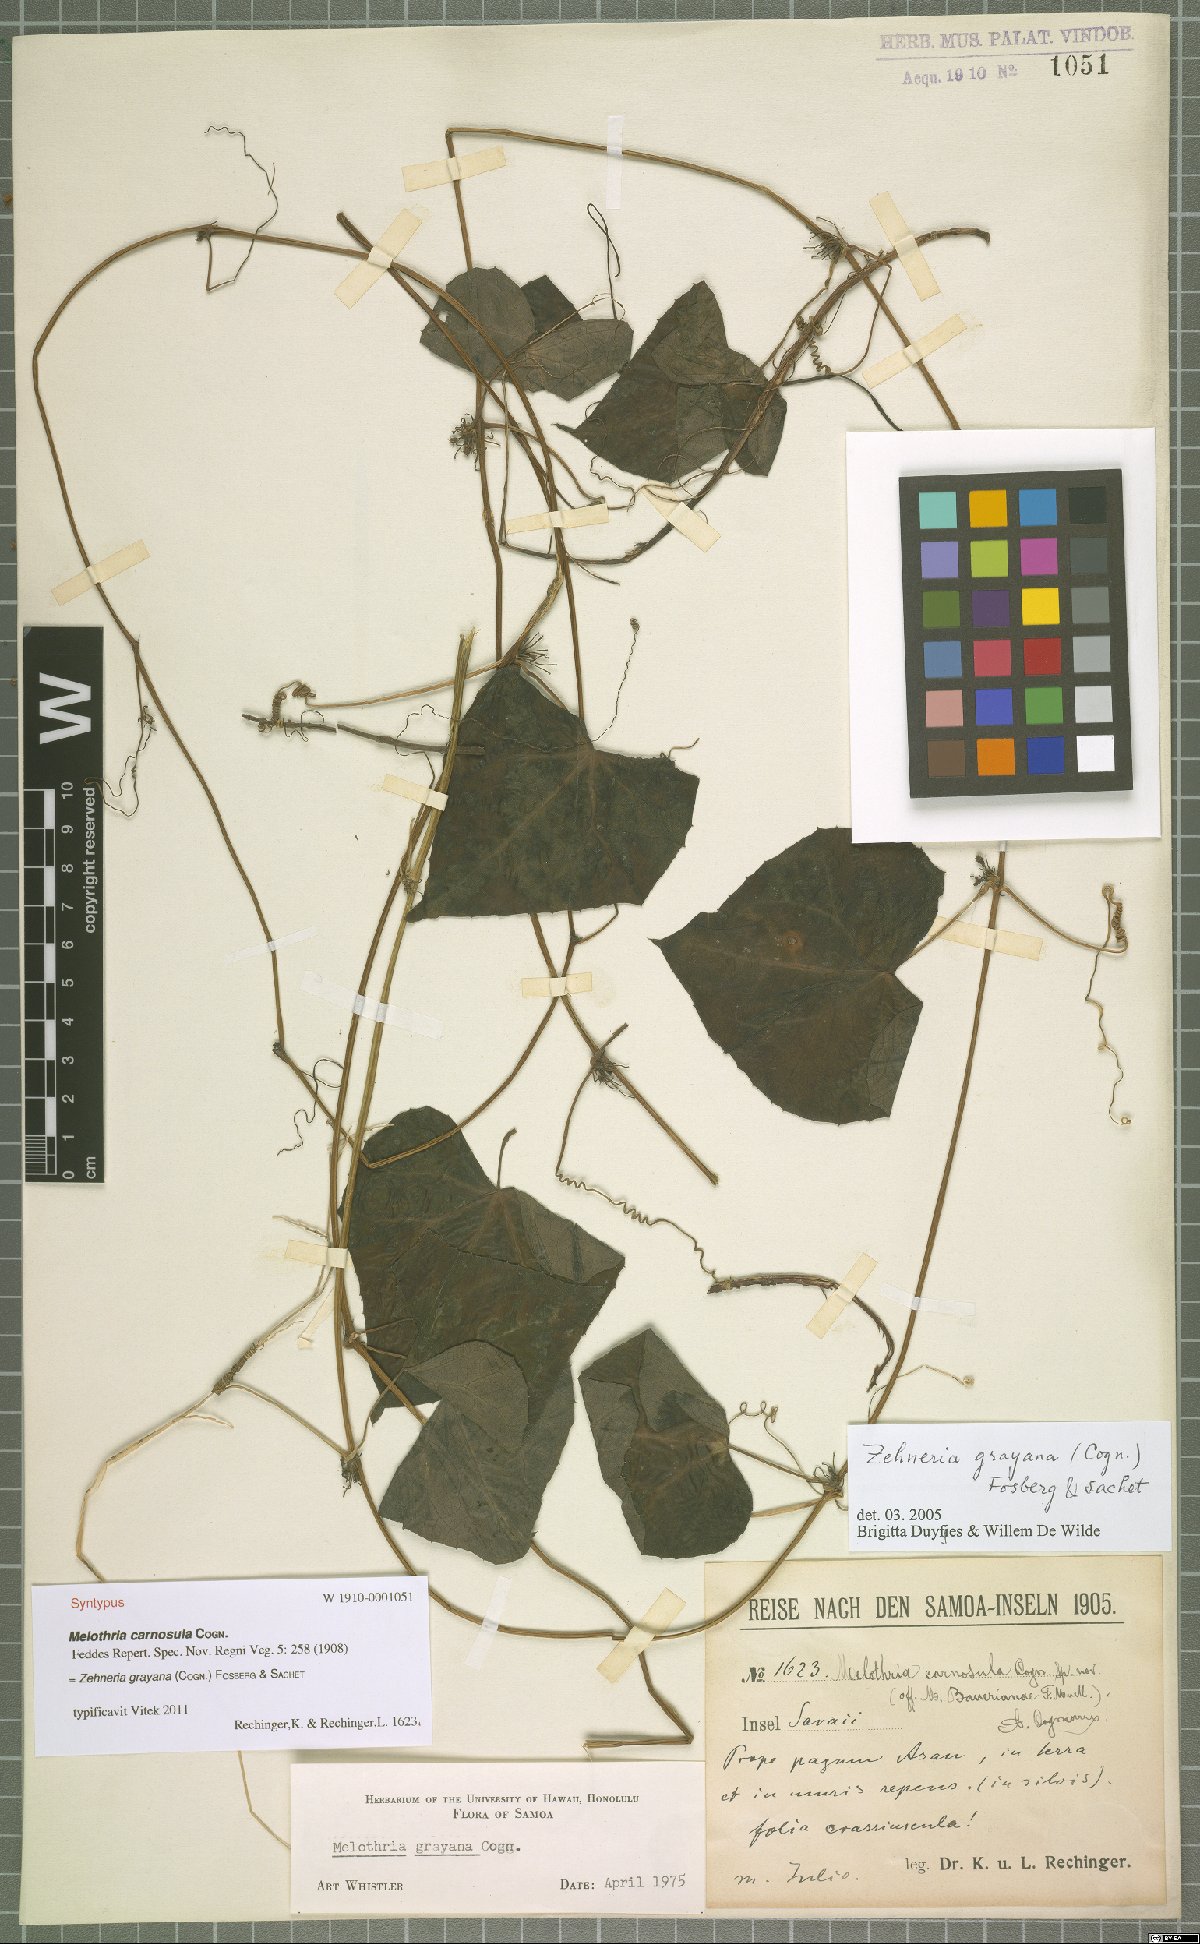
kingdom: Plantae
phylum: Tracheophyta
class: Magnoliopsida
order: Cucurbitales
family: Cucurbitaceae
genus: Zehneria
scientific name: Zehneria mucronata
